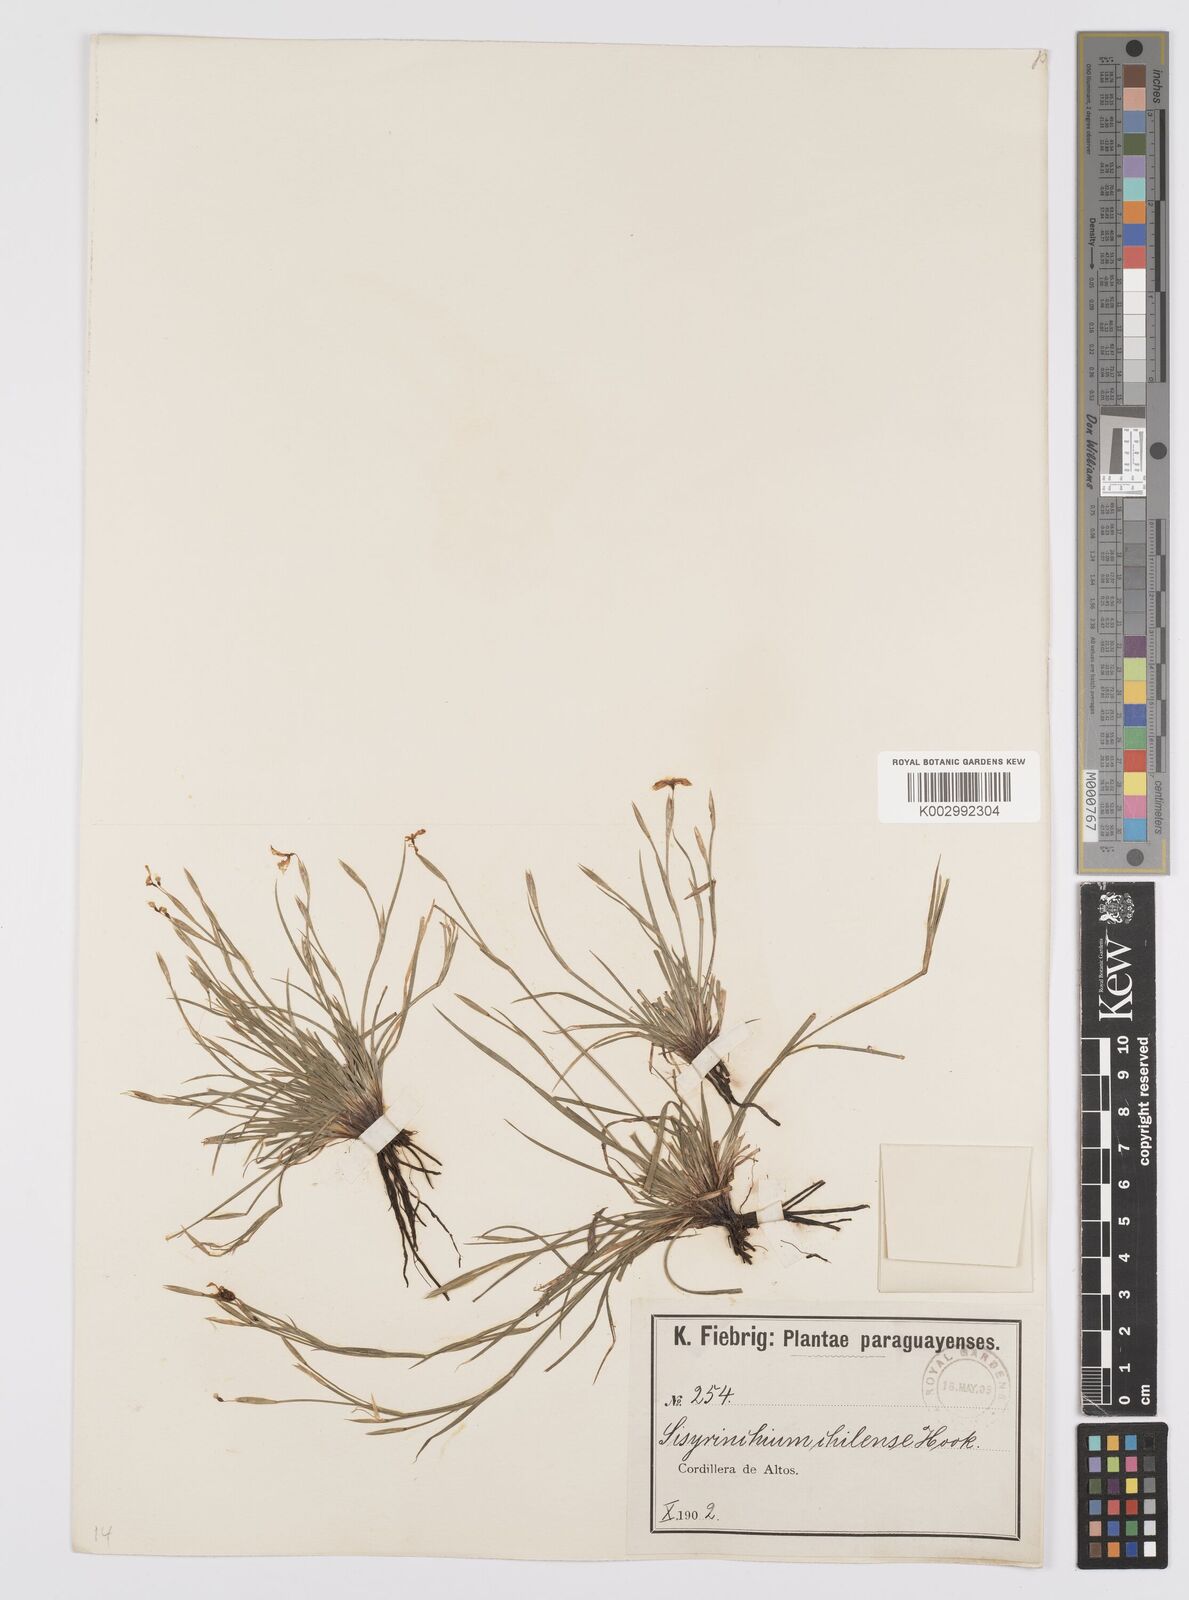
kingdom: Plantae
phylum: Tracheophyta
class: Liliopsida
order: Asparagales
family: Iridaceae
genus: Sisyrinchium
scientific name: Sisyrinchium chilense
